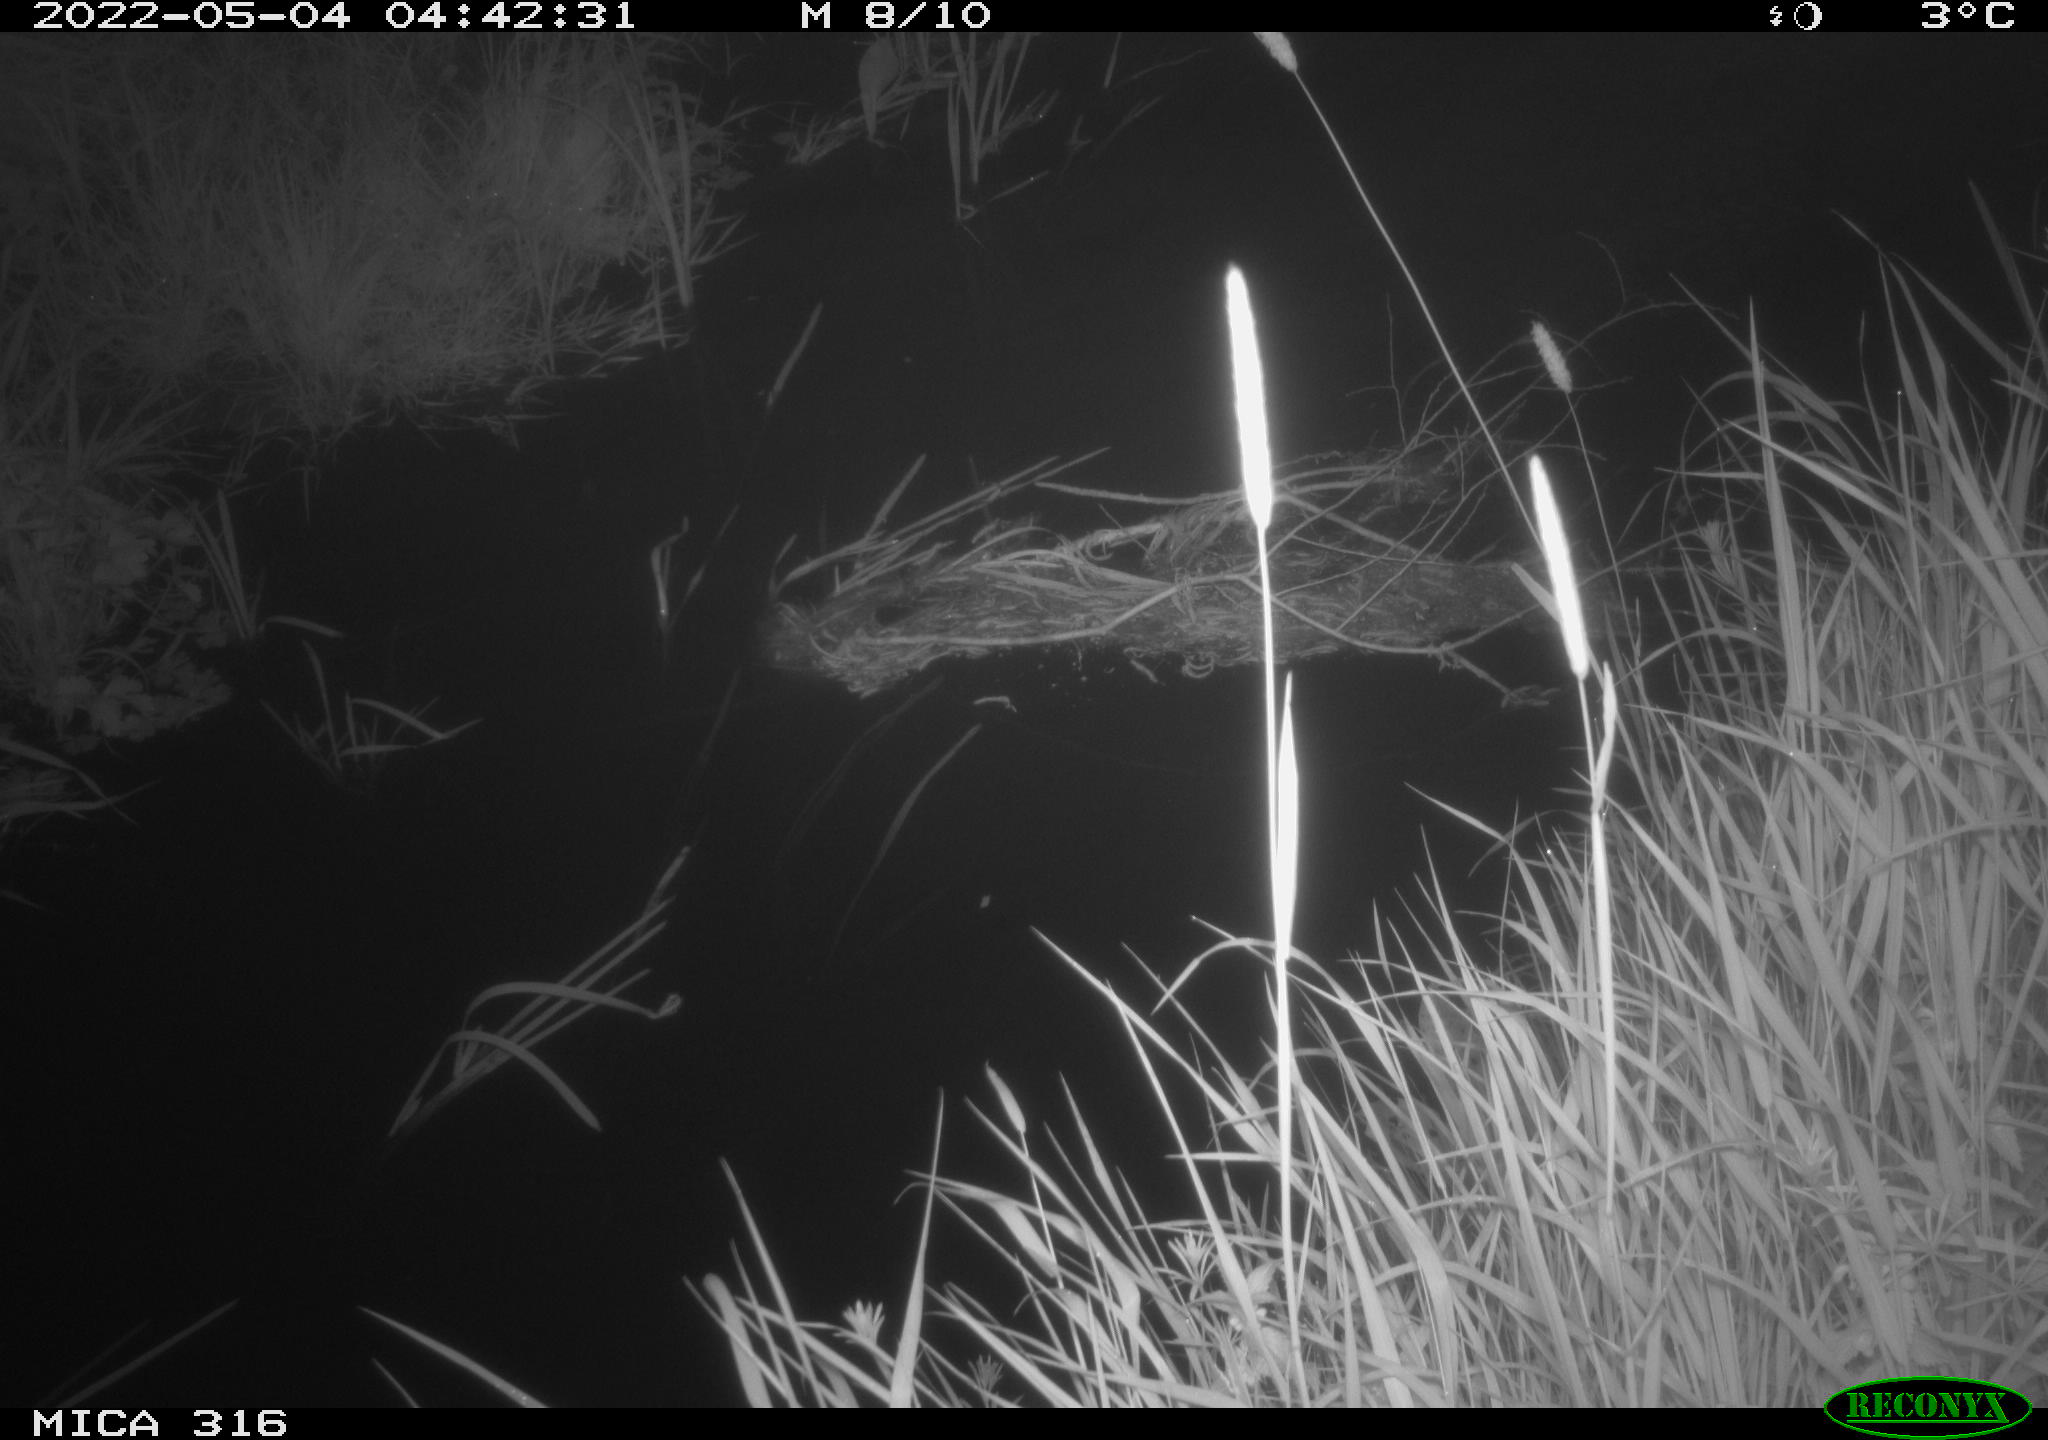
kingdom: Animalia
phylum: Chordata
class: Aves
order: Anseriformes
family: Anatidae
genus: Anas
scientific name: Anas platyrhynchos
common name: Mallard
